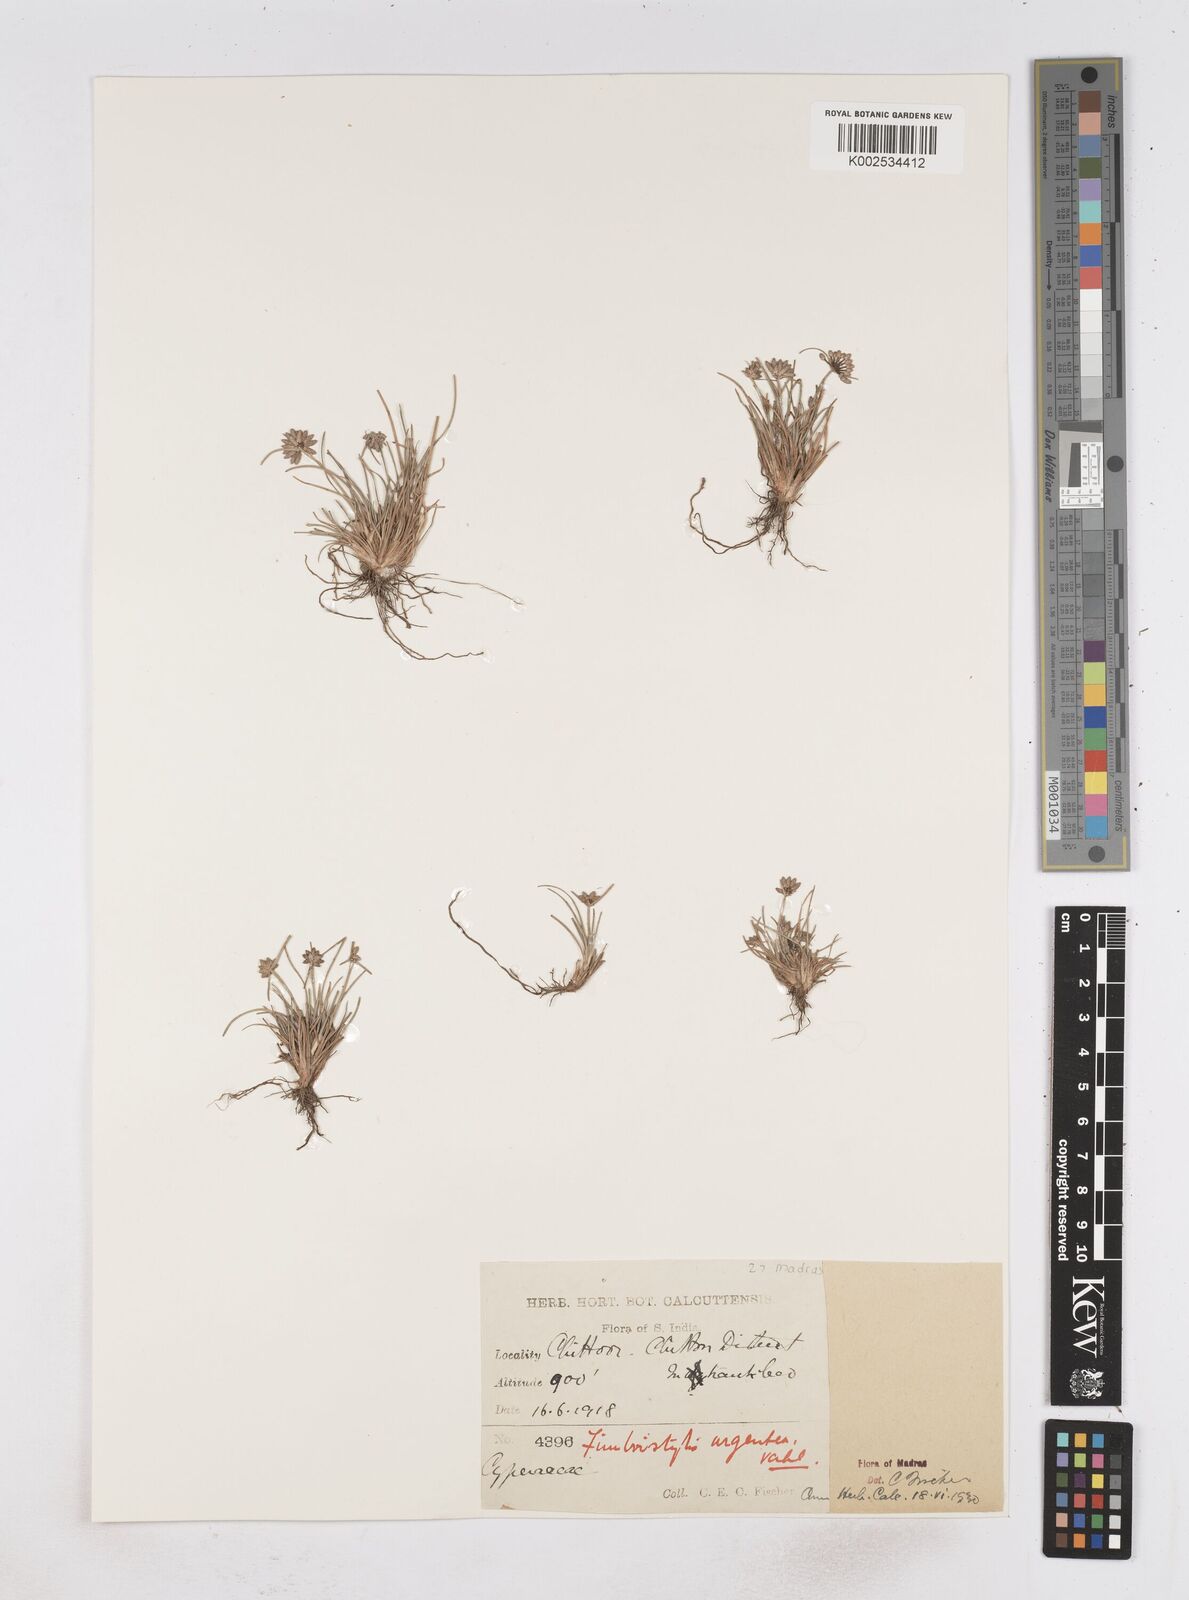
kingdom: Plantae
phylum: Tracheophyta
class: Liliopsida
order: Poales
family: Cyperaceae
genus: Fimbristylis
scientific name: Fimbristylis argentea
